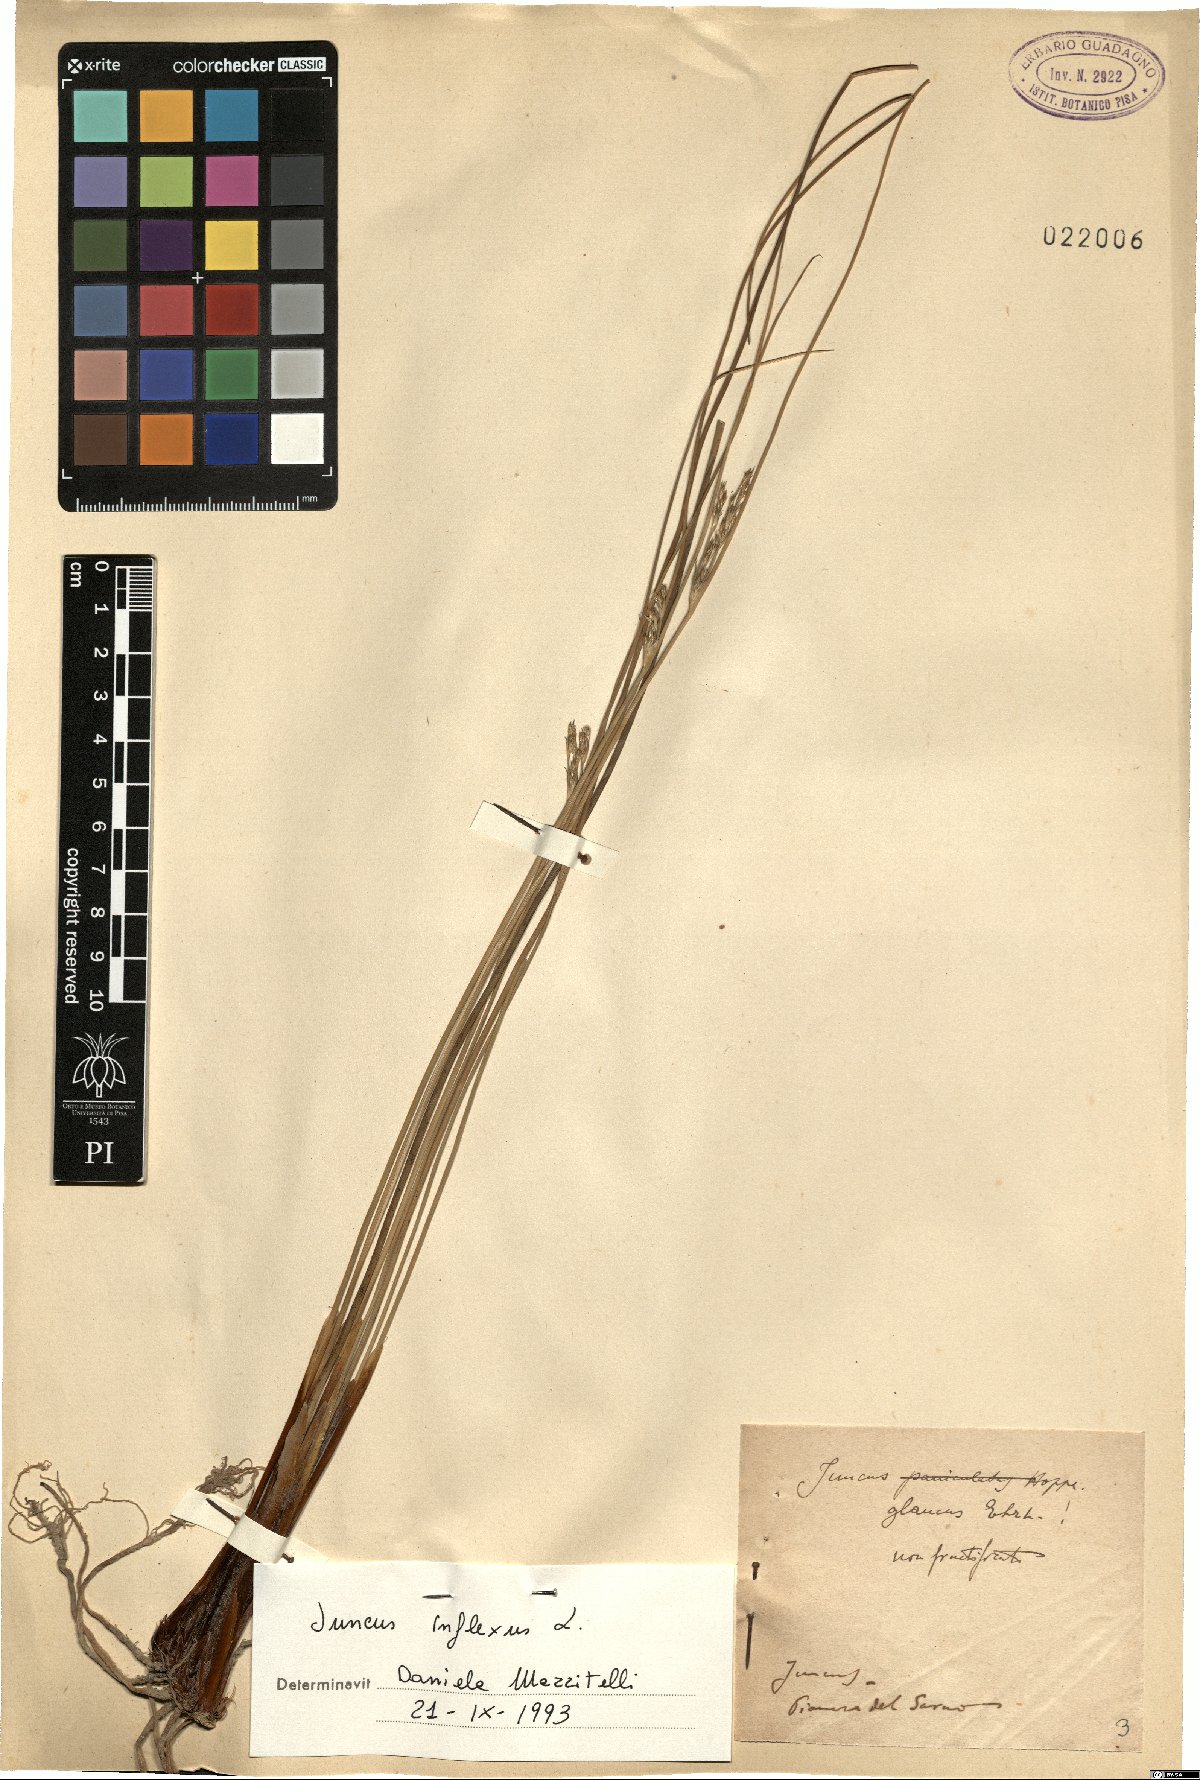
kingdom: Plantae
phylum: Tracheophyta
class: Liliopsida
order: Poales
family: Juncaceae
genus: Juncus
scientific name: Juncus inflexus
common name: Hard rush
